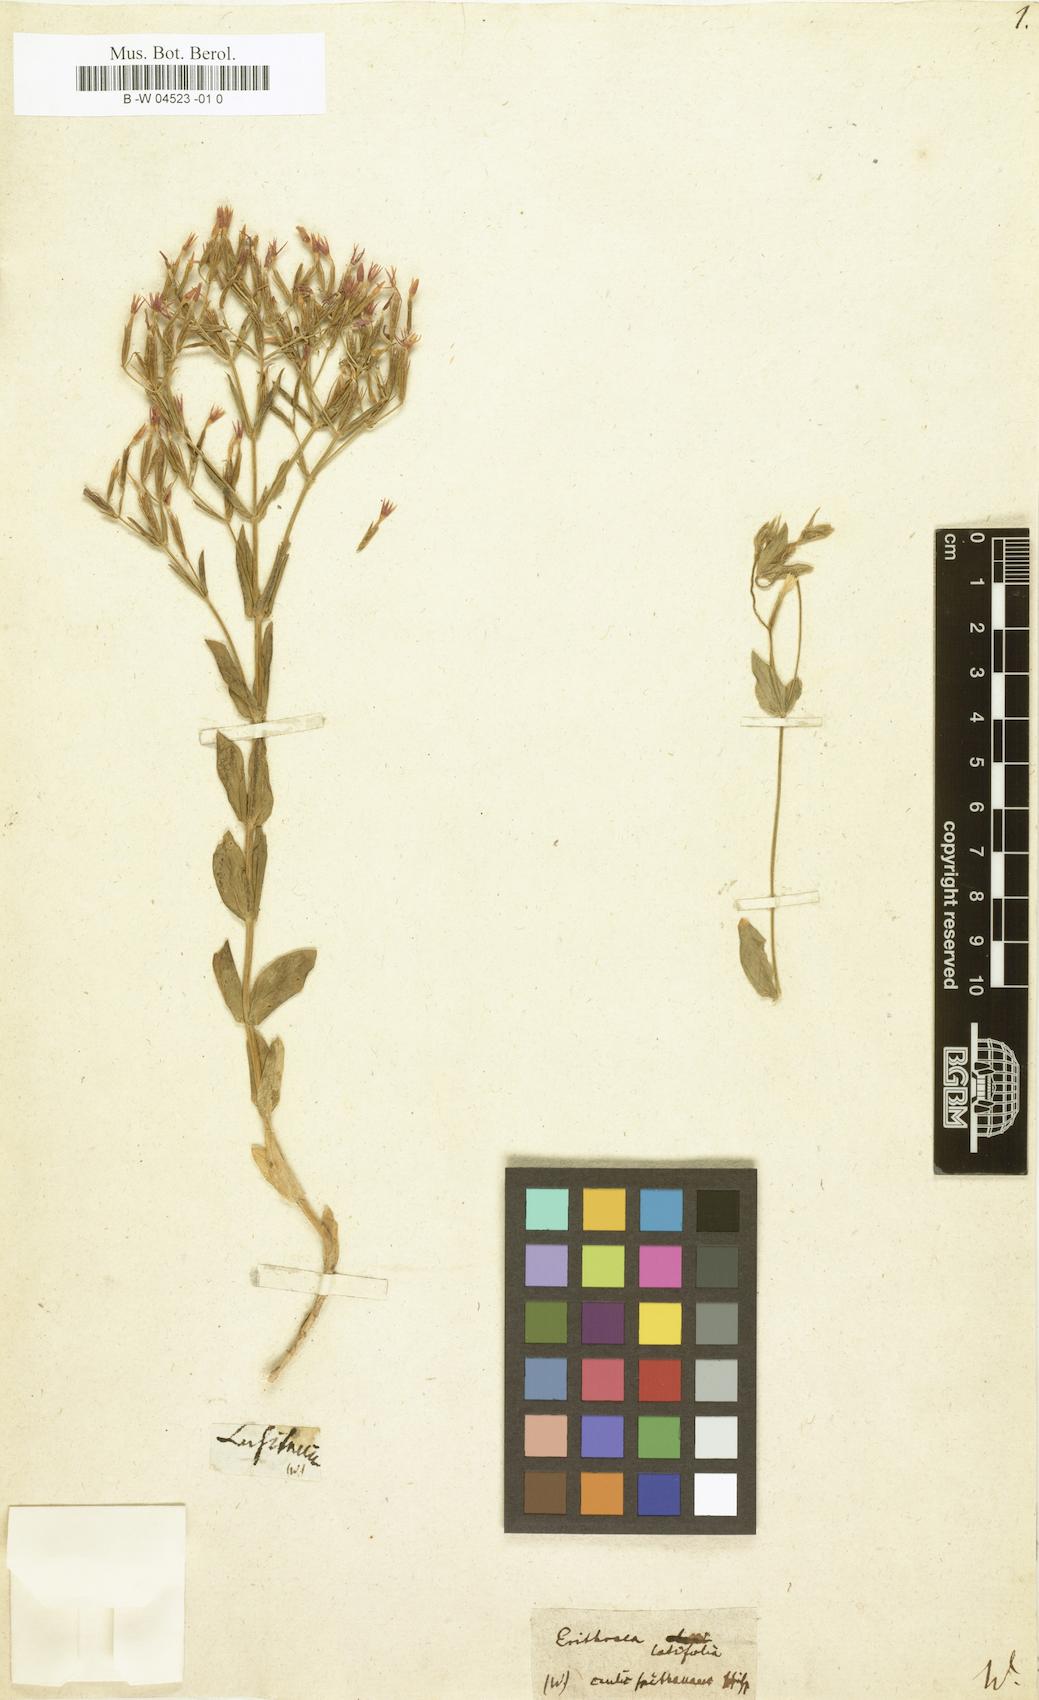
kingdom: Plantae
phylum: Tracheophyta
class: Magnoliopsida
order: Gentianales
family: Gentianaceae
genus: Centaurium
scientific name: Centaurium erythraea
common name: Common centaury
